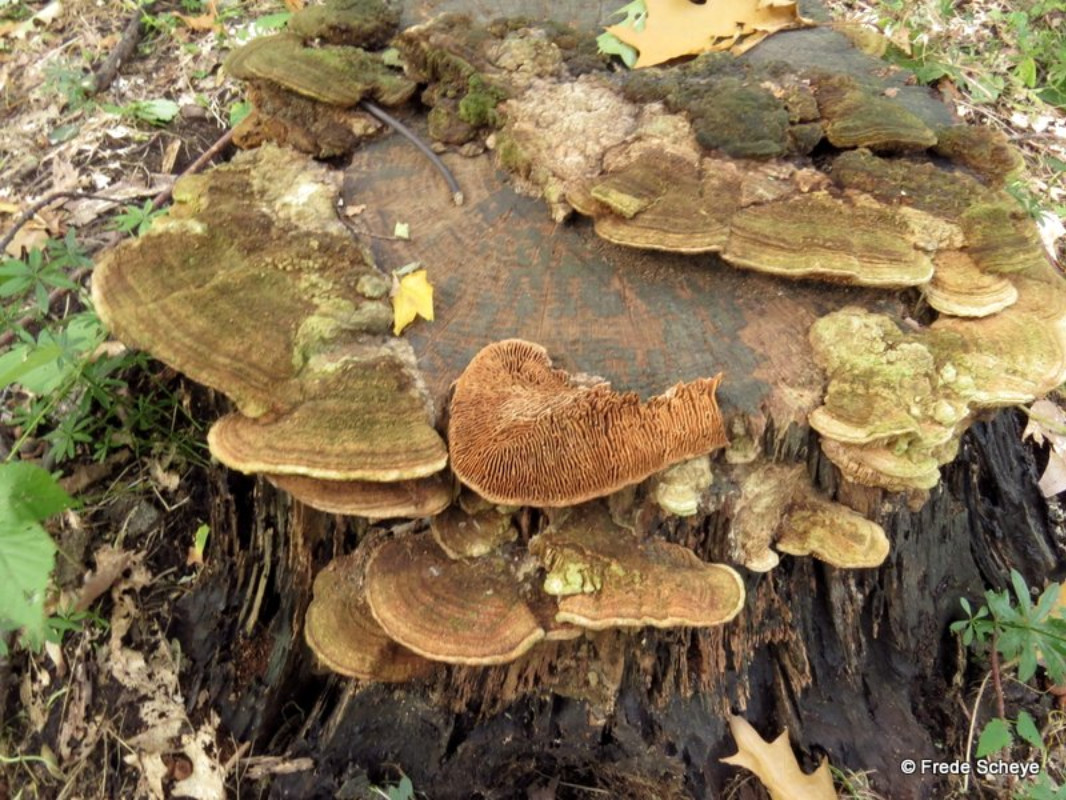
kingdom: Fungi
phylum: Basidiomycota
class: Agaricomycetes
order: Polyporales
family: Fomitopsidaceae
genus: Daedalea
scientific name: Daedalea quercina
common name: ege-labyrintsvamp
